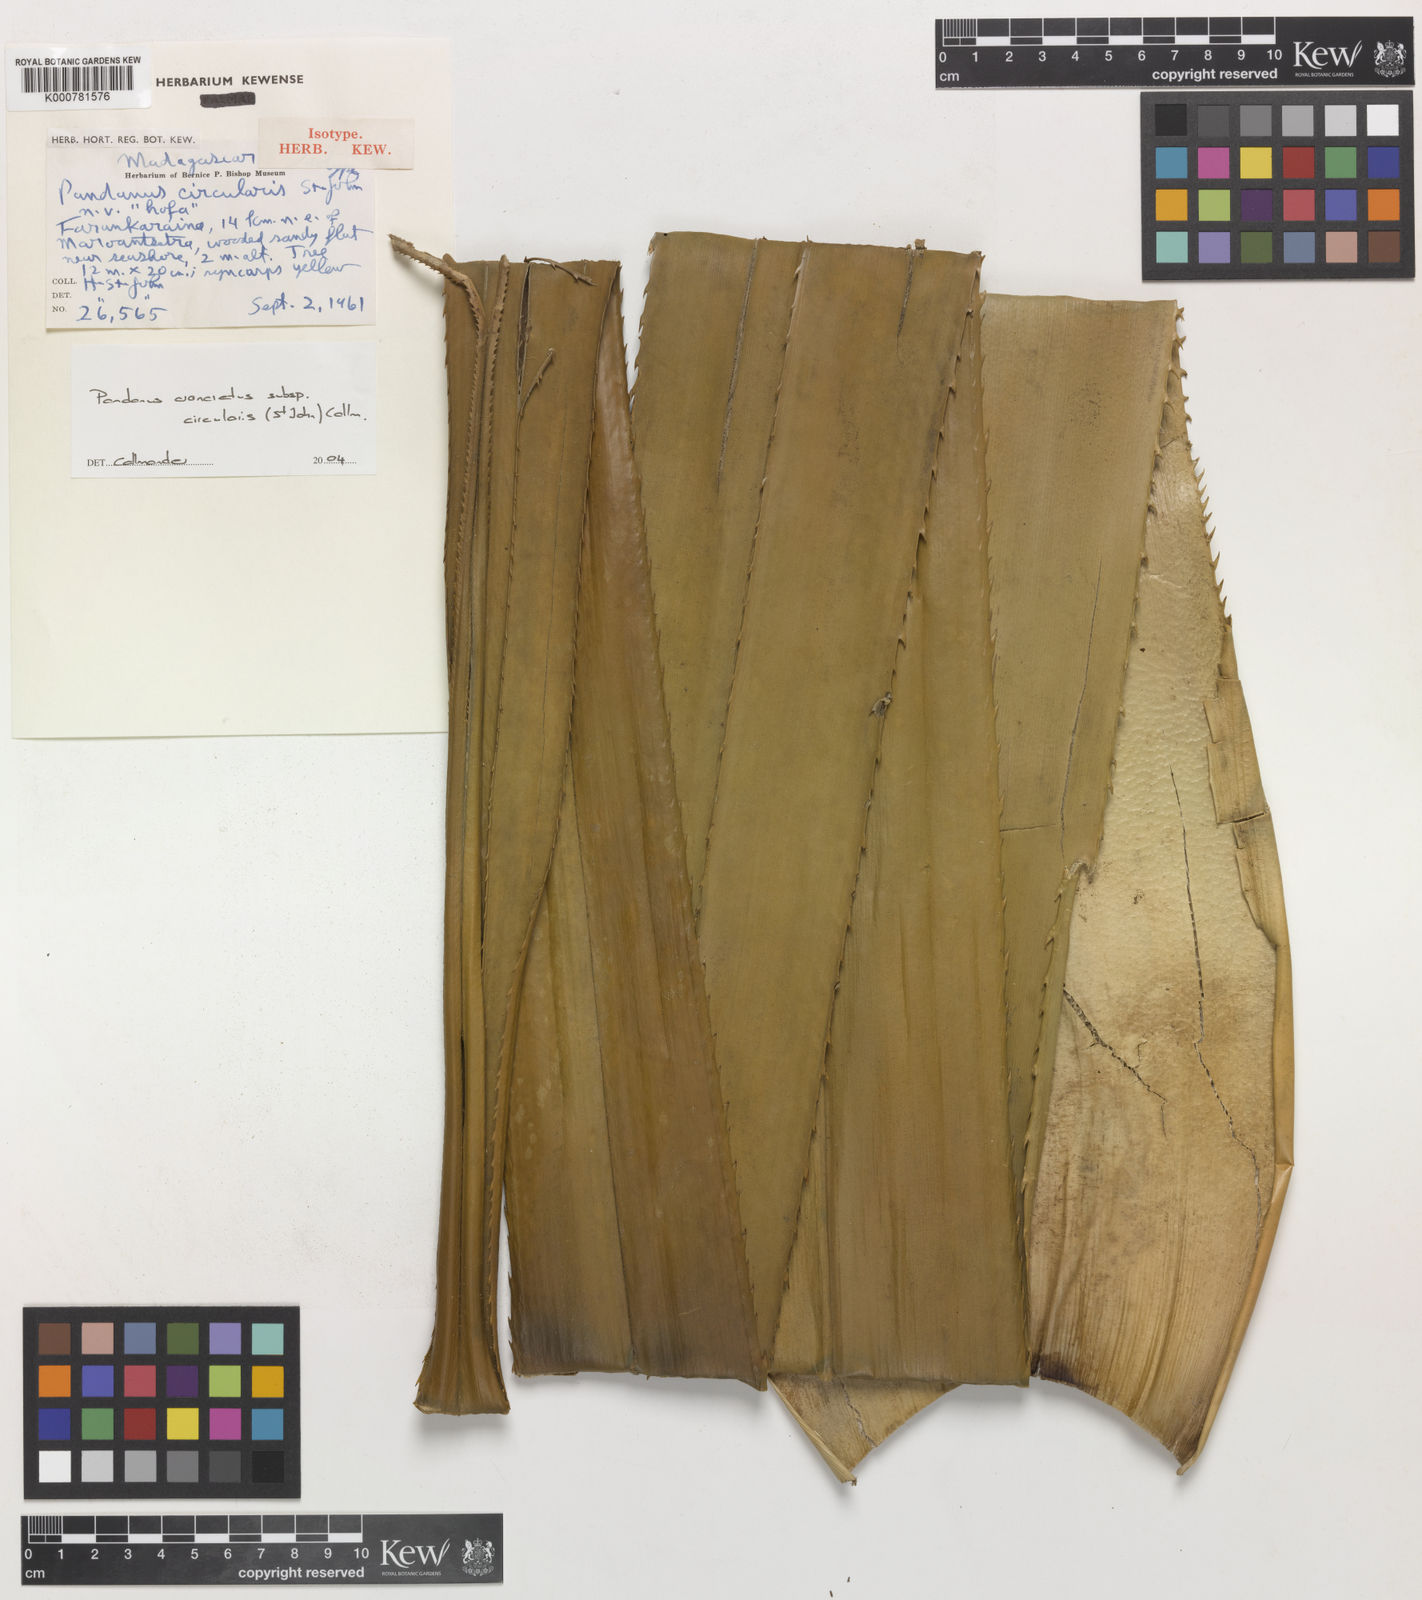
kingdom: Plantae
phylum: Tracheophyta
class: Liliopsida
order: Pandanales
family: Pandanaceae
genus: Pandanus
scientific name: Pandanus concretus
